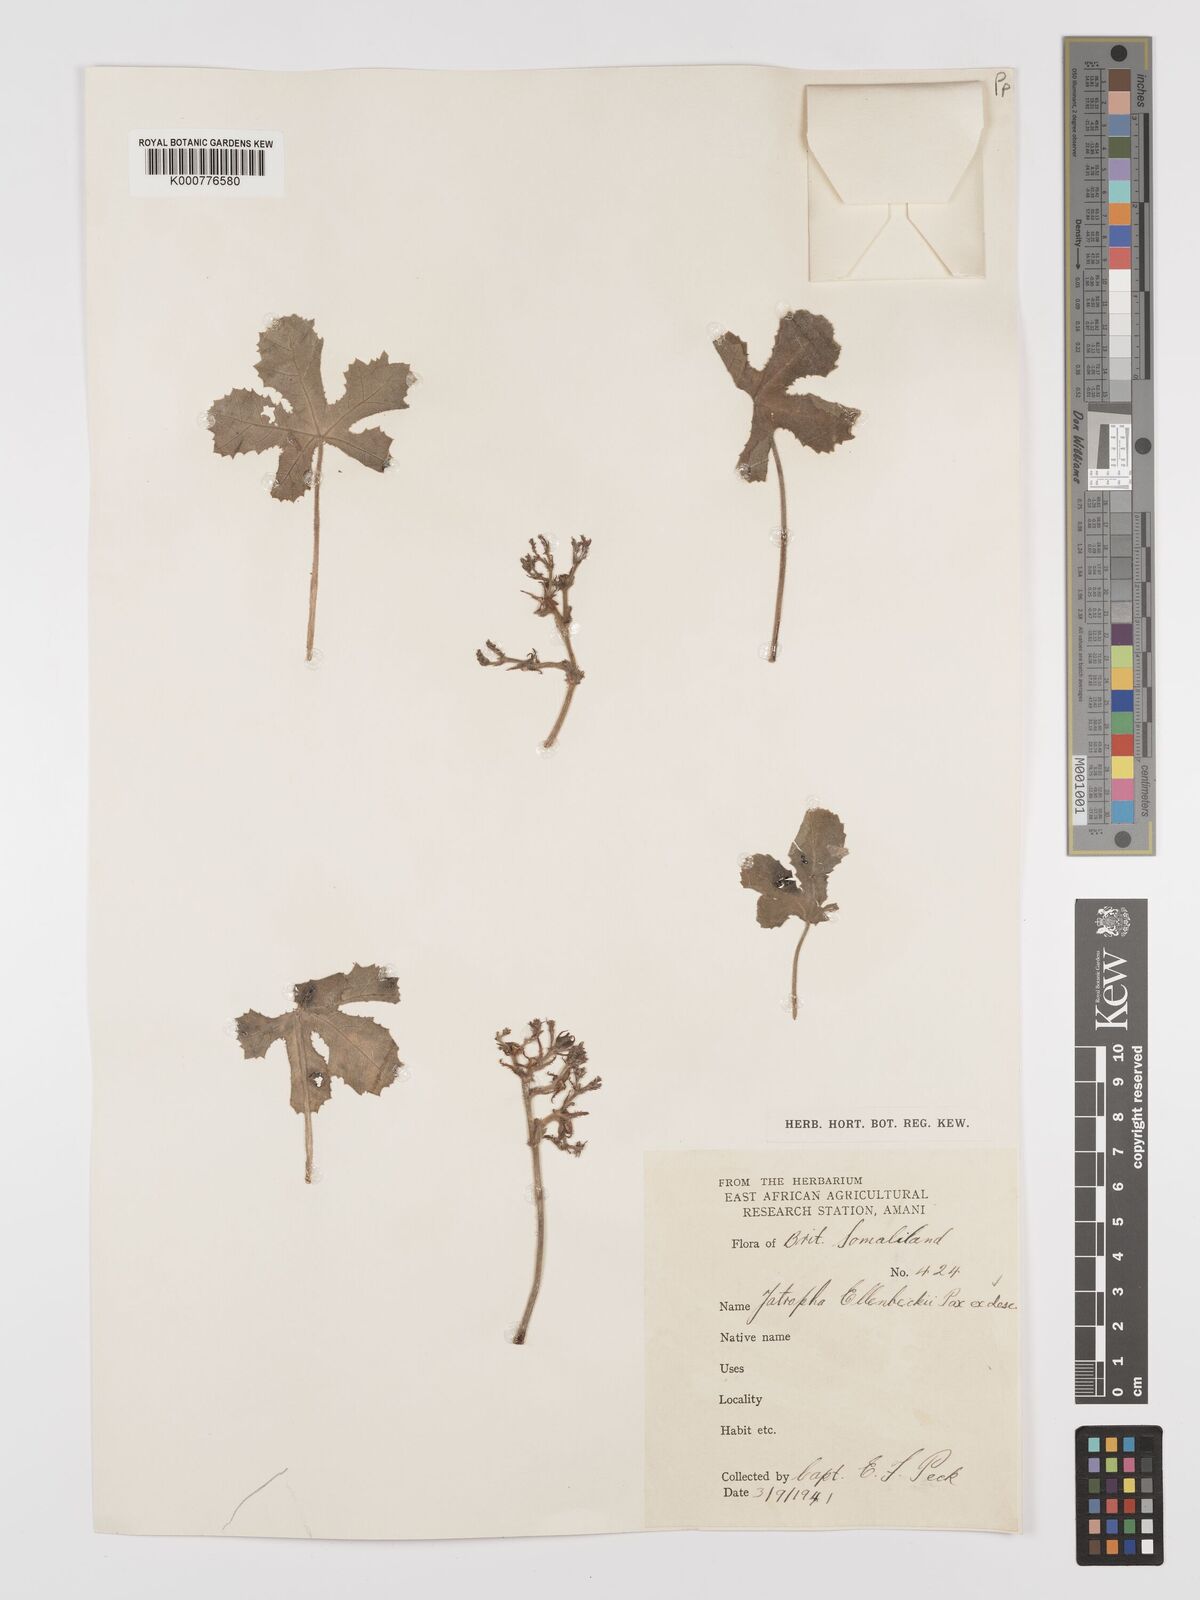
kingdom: Plantae
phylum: Tracheophyta
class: Magnoliopsida
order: Malpighiales
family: Euphorbiaceae
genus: Jatropha
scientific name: Jatropha ellenbeckii
